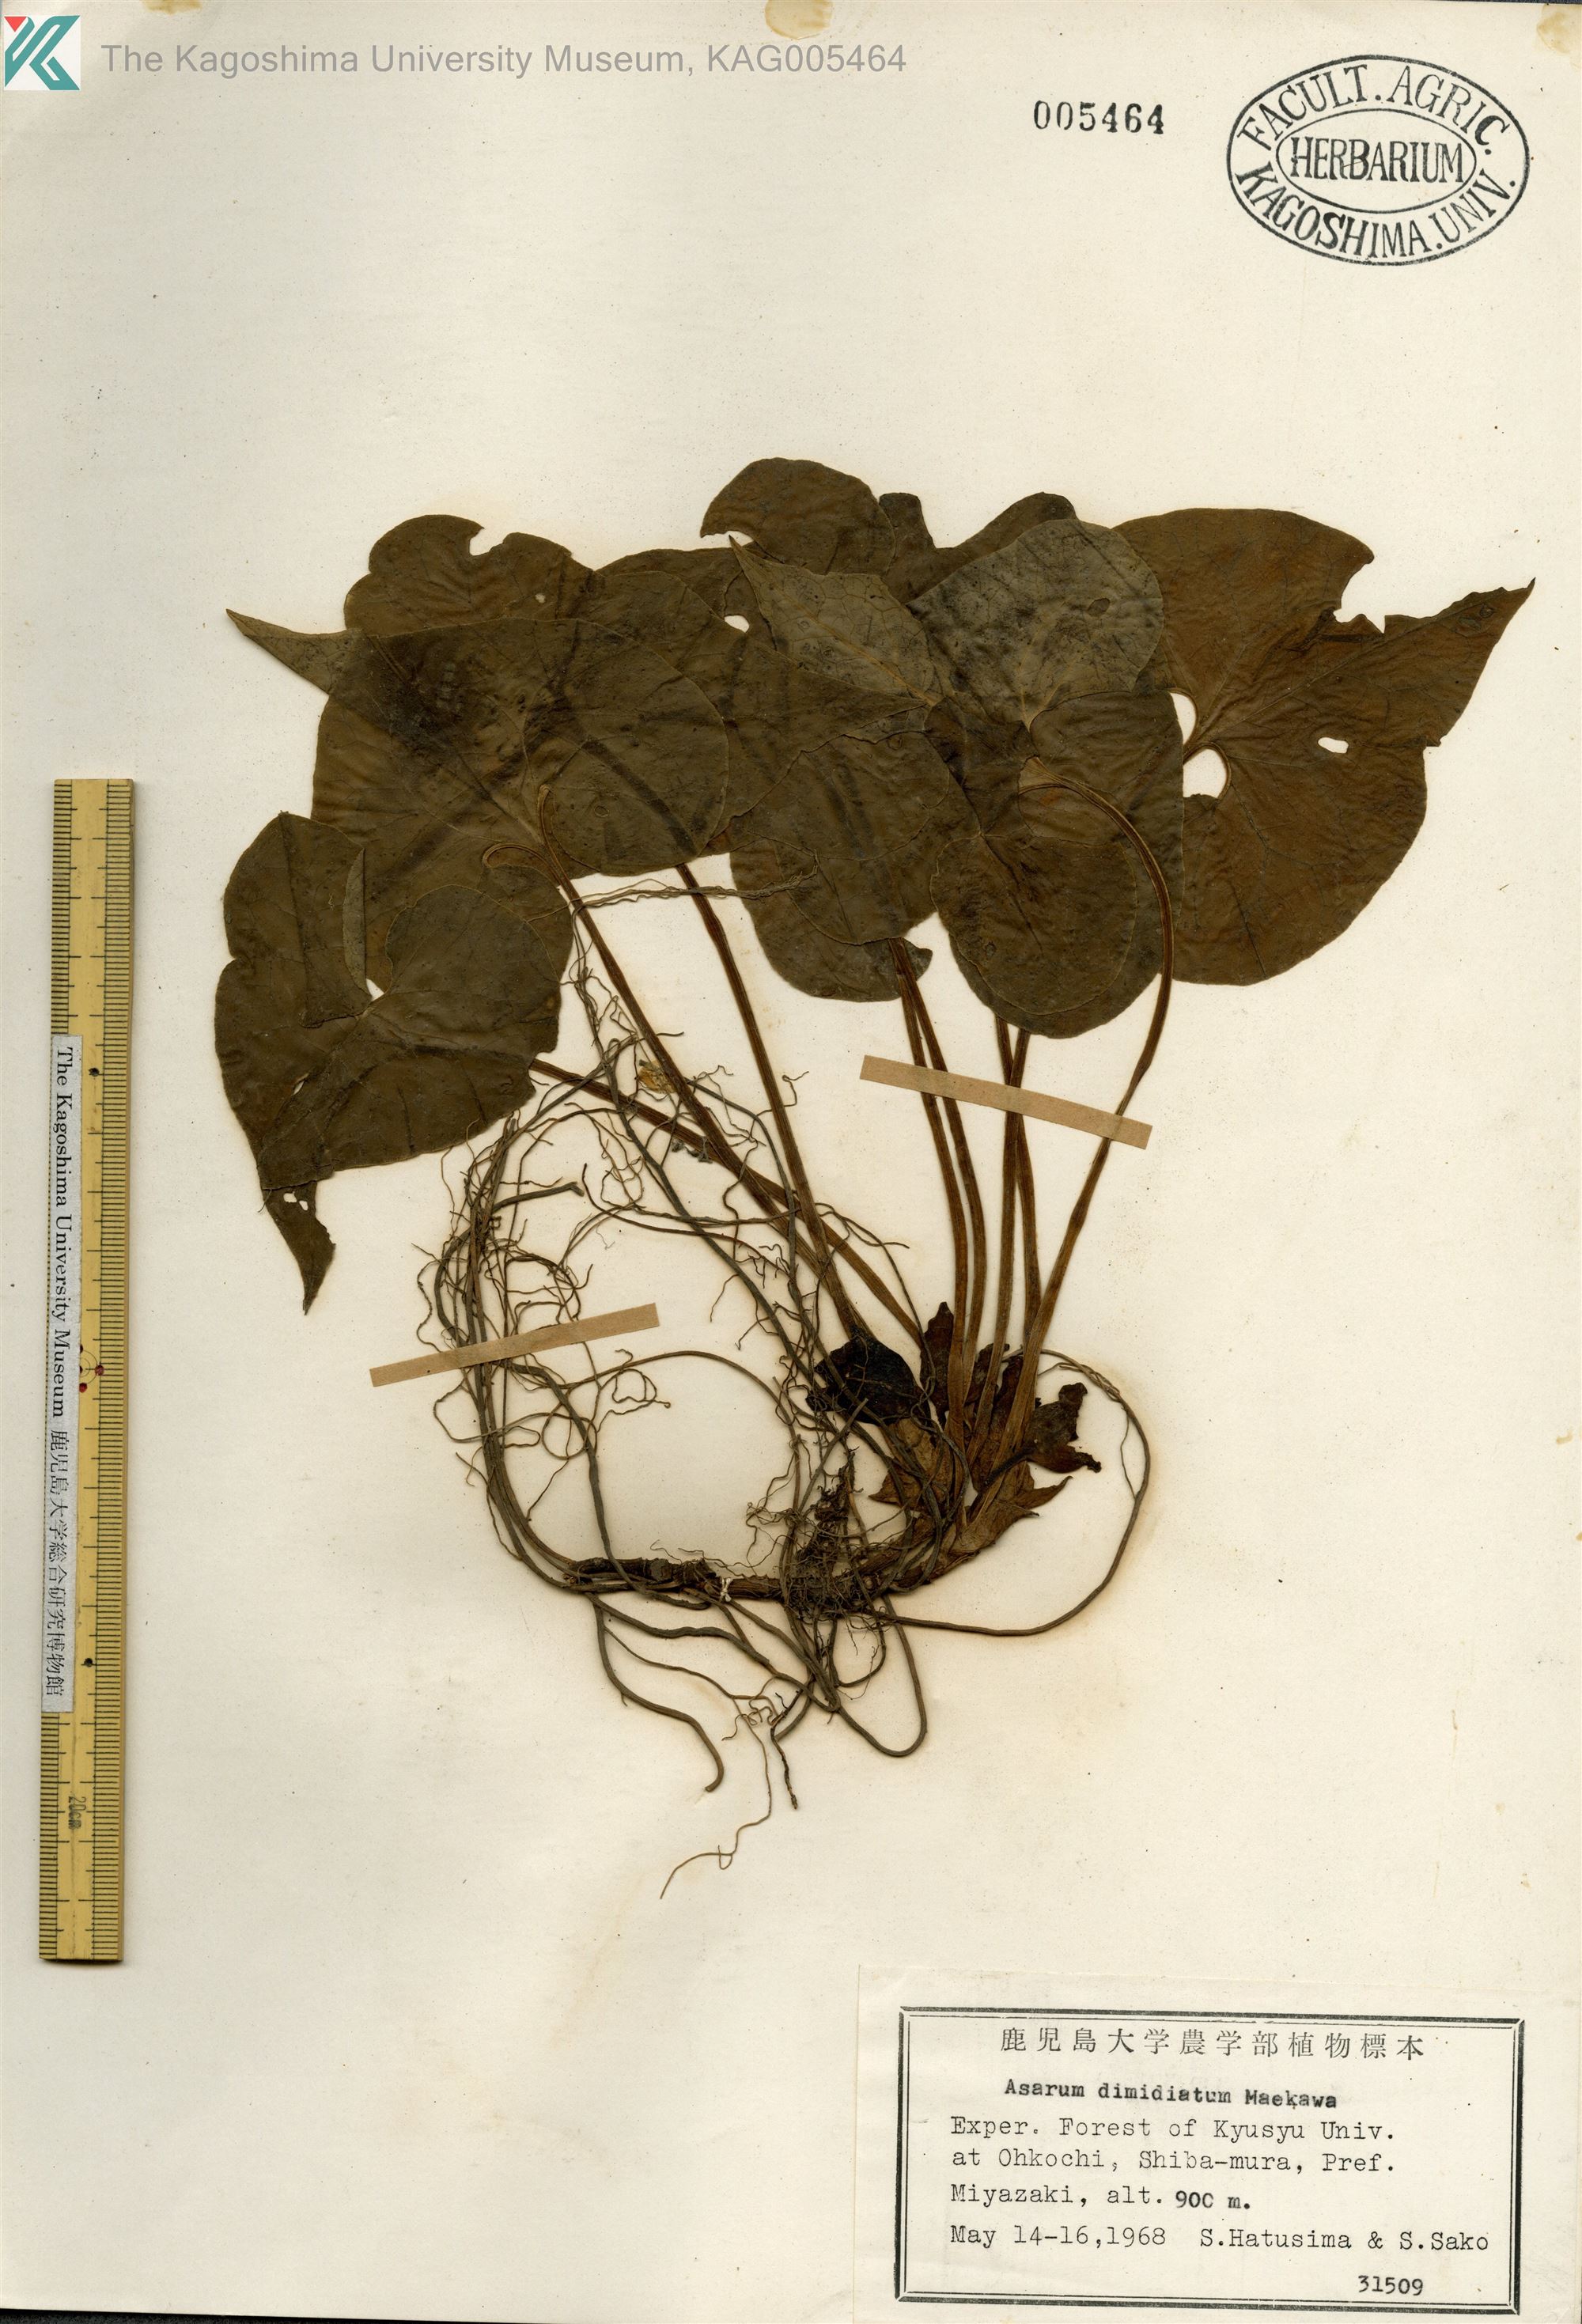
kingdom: Plantae
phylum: Tracheophyta
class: Magnoliopsida
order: Piperales
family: Aristolochiaceae
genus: Asarum
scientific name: Asarum sieboldii
